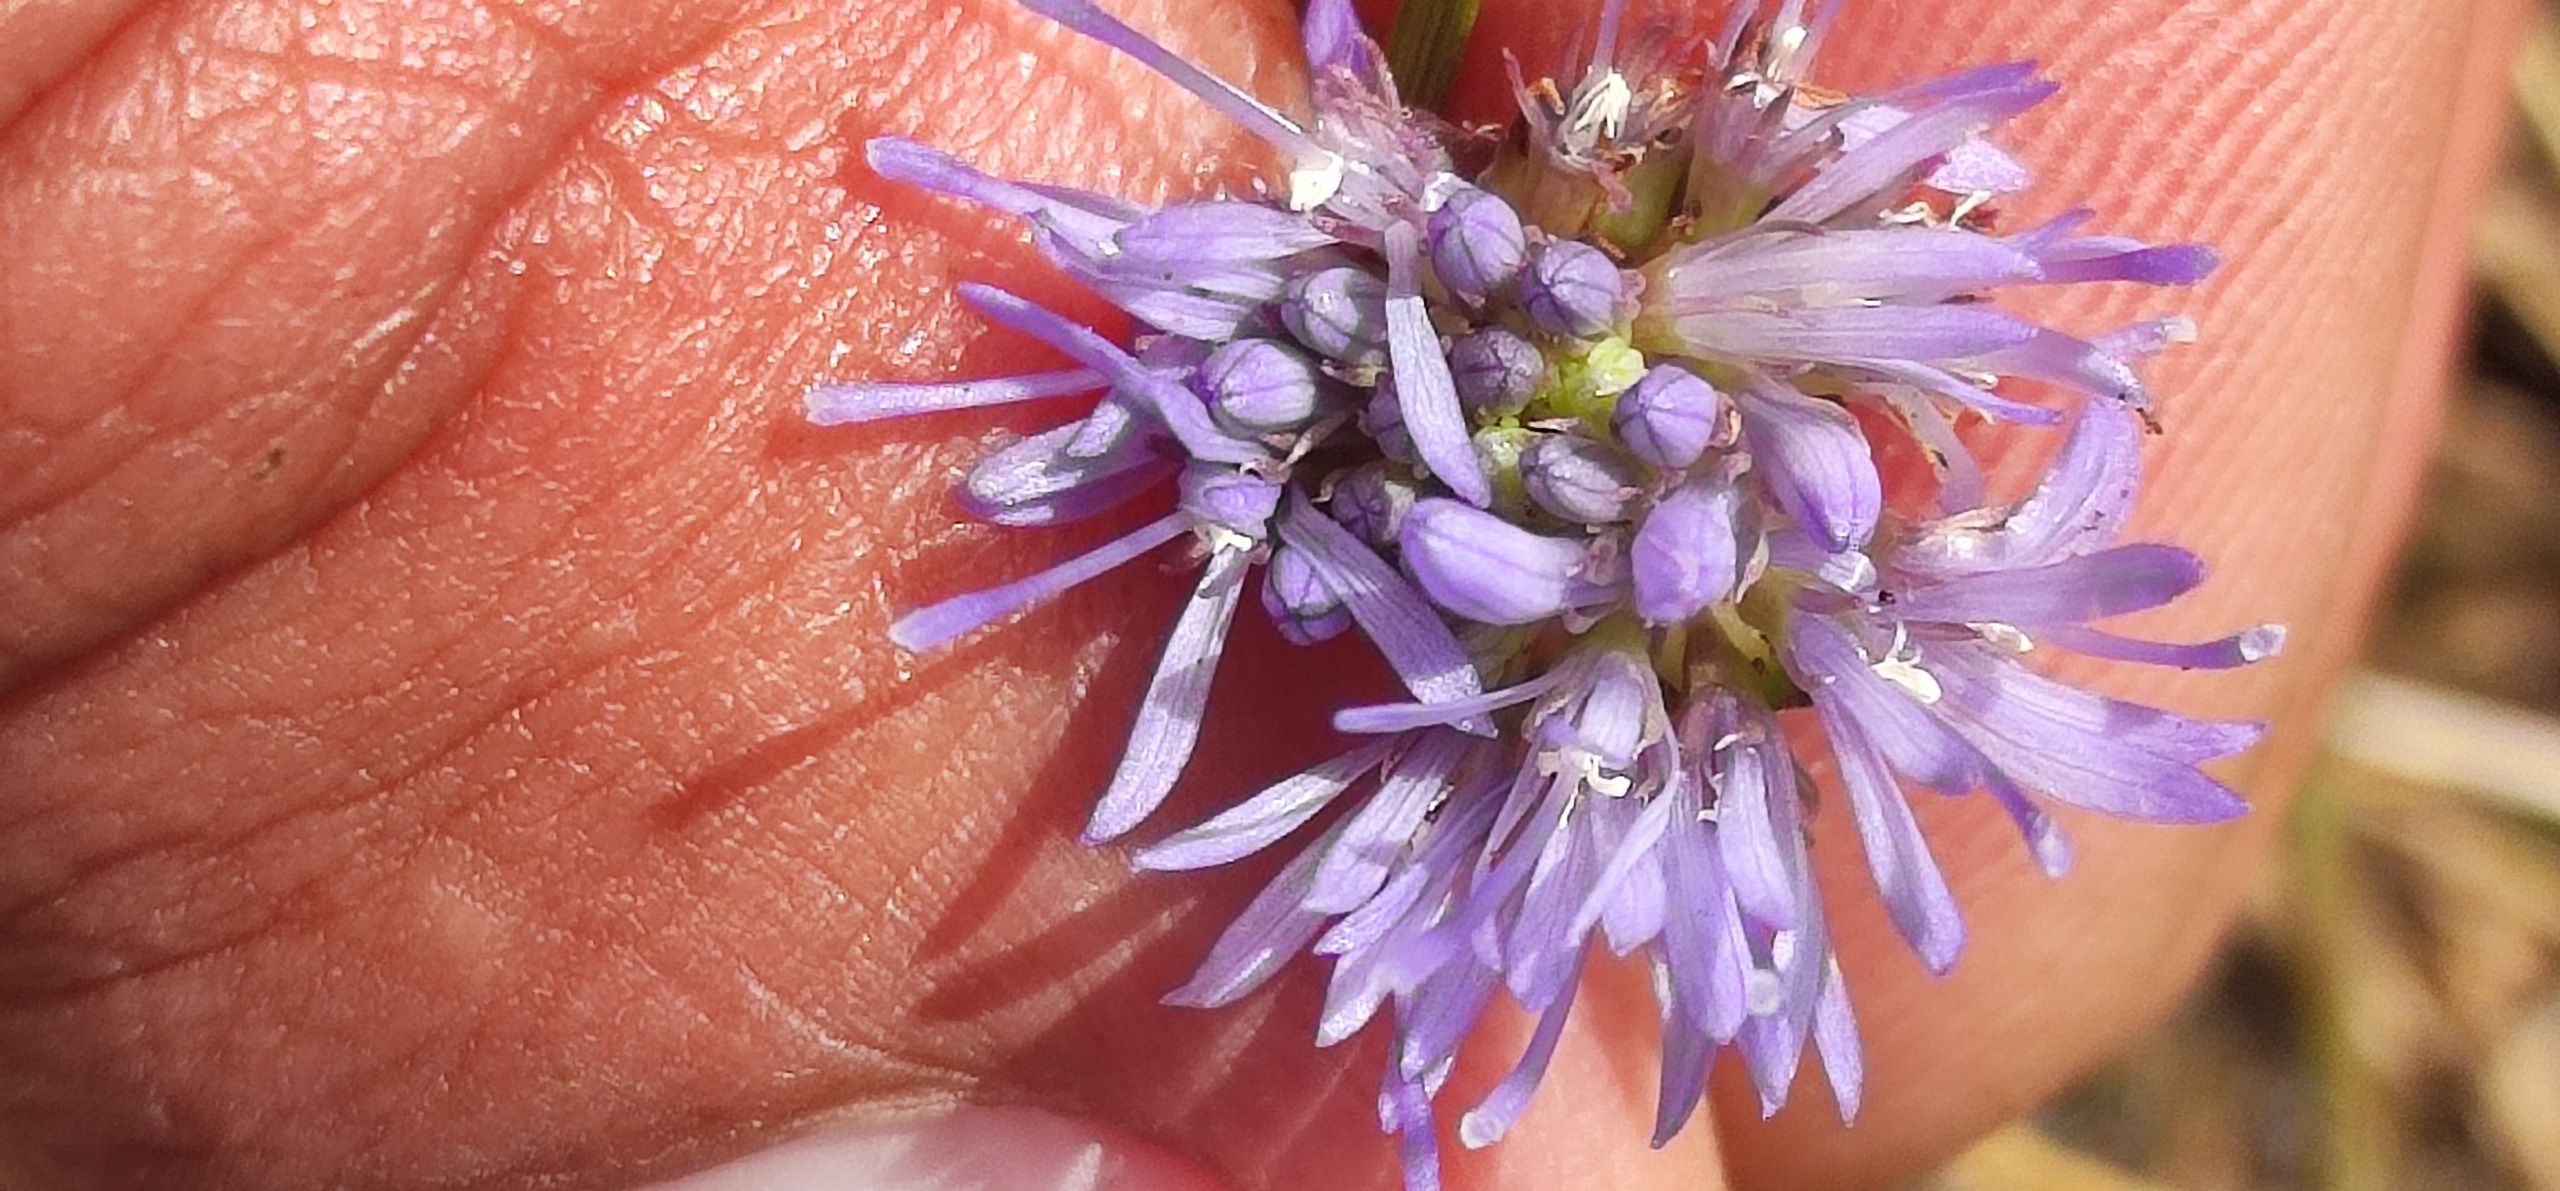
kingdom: Plantae
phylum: Tracheophyta
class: Magnoliopsida
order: Asterales
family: Campanulaceae
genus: Jasione
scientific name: Jasione montana
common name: Blåmunke
